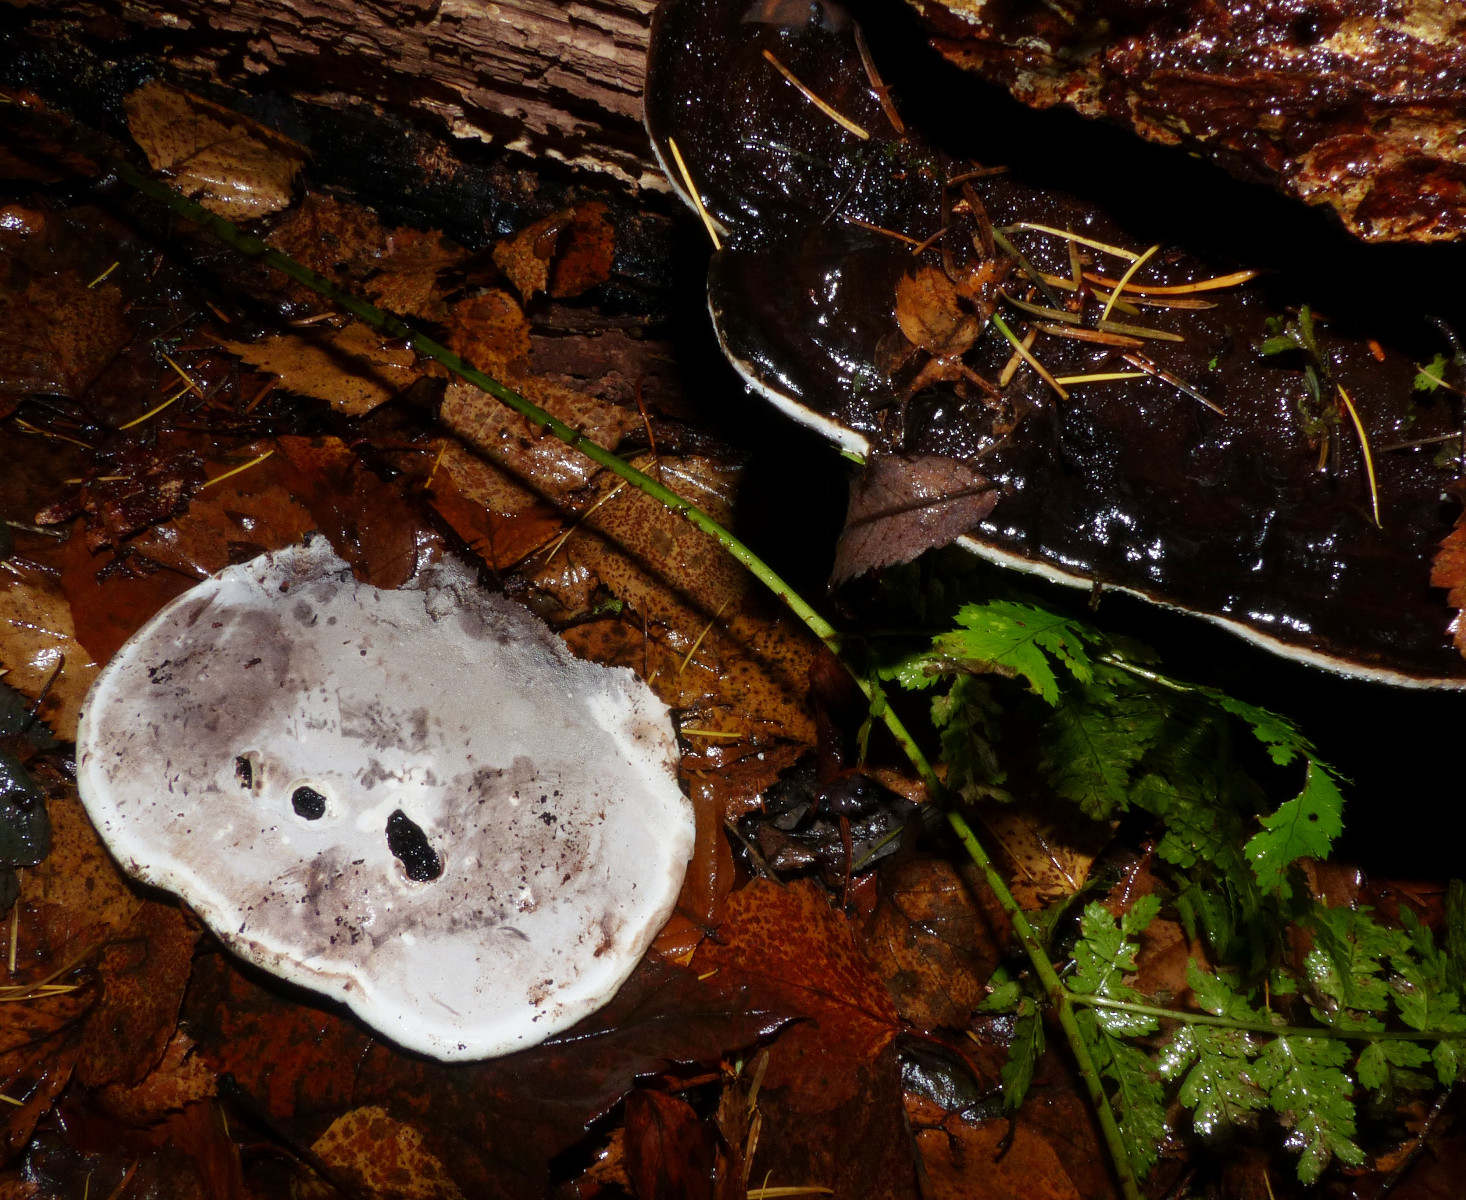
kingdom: Fungi
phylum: Basidiomycota
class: Agaricomycetes
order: Polyporales
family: Polyporaceae
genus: Ganoderma
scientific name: Ganoderma applanatum
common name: flad lakporesvamp
